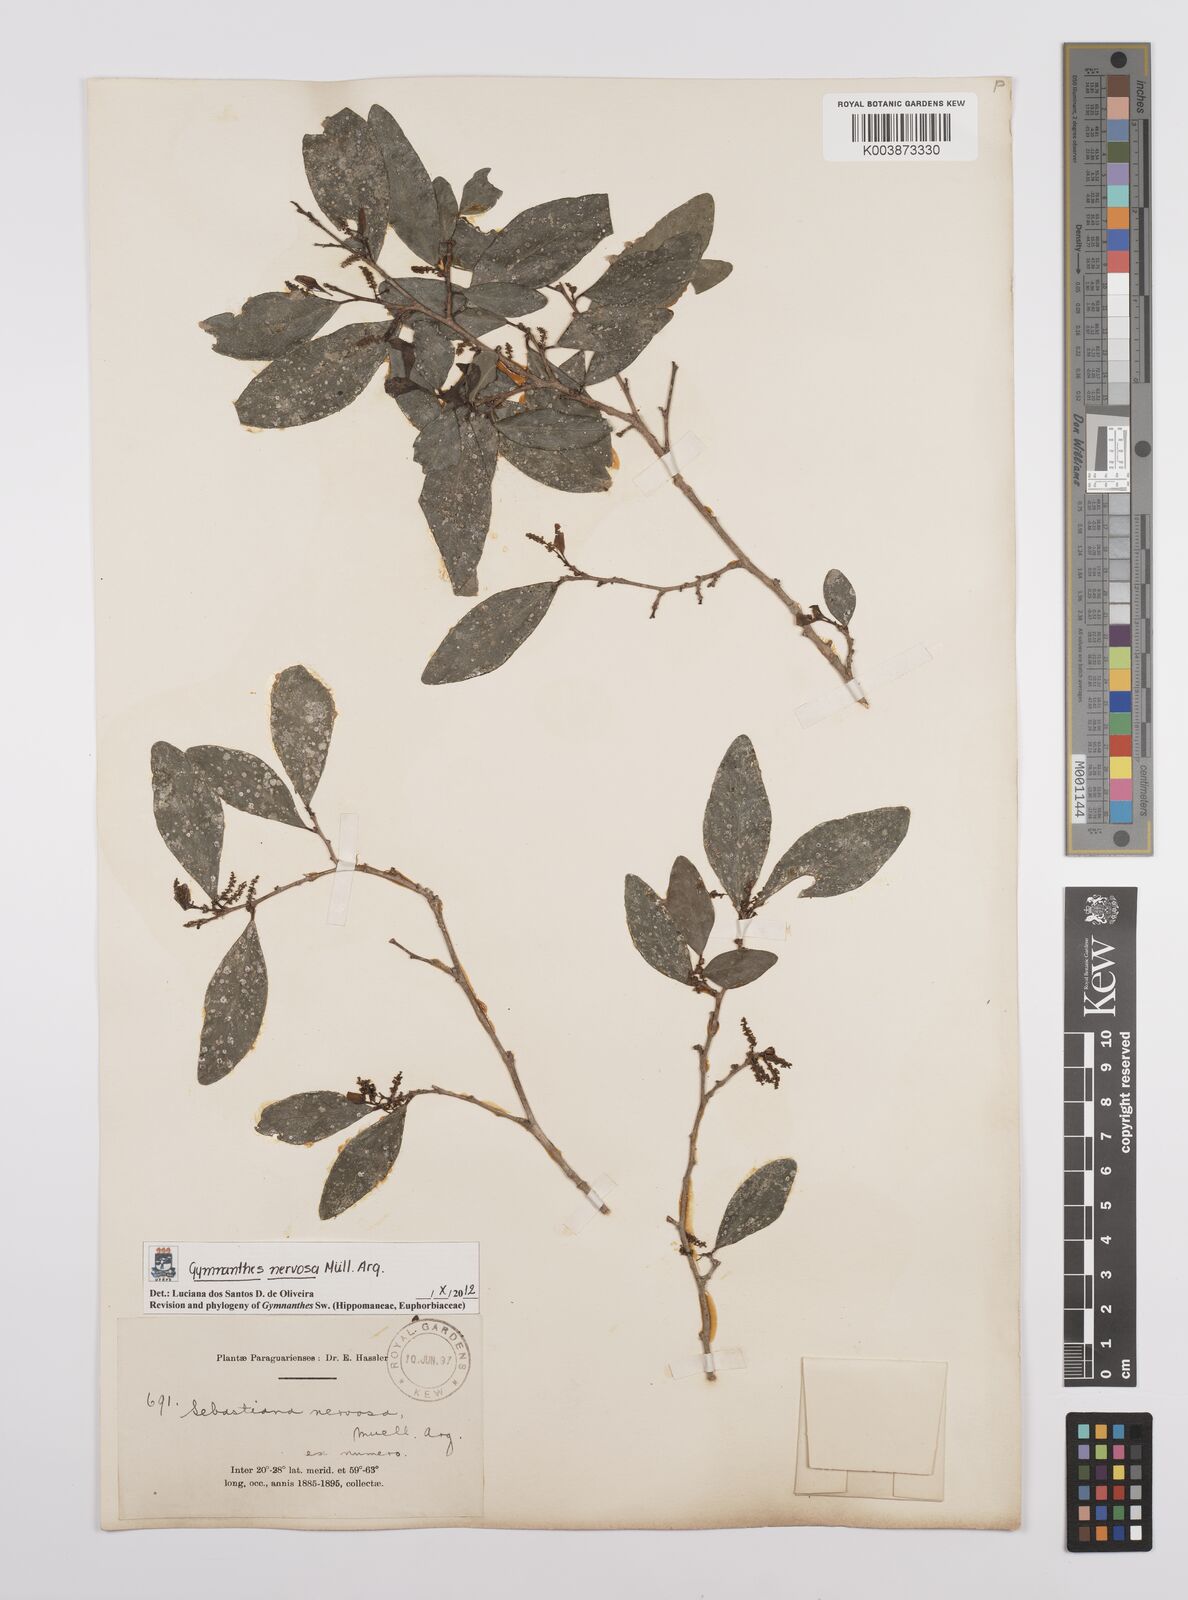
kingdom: Plantae
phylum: Tracheophyta
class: Magnoliopsida
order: Malpighiales
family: Euphorbiaceae
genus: Gymnanthes
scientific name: Gymnanthes nervosa
